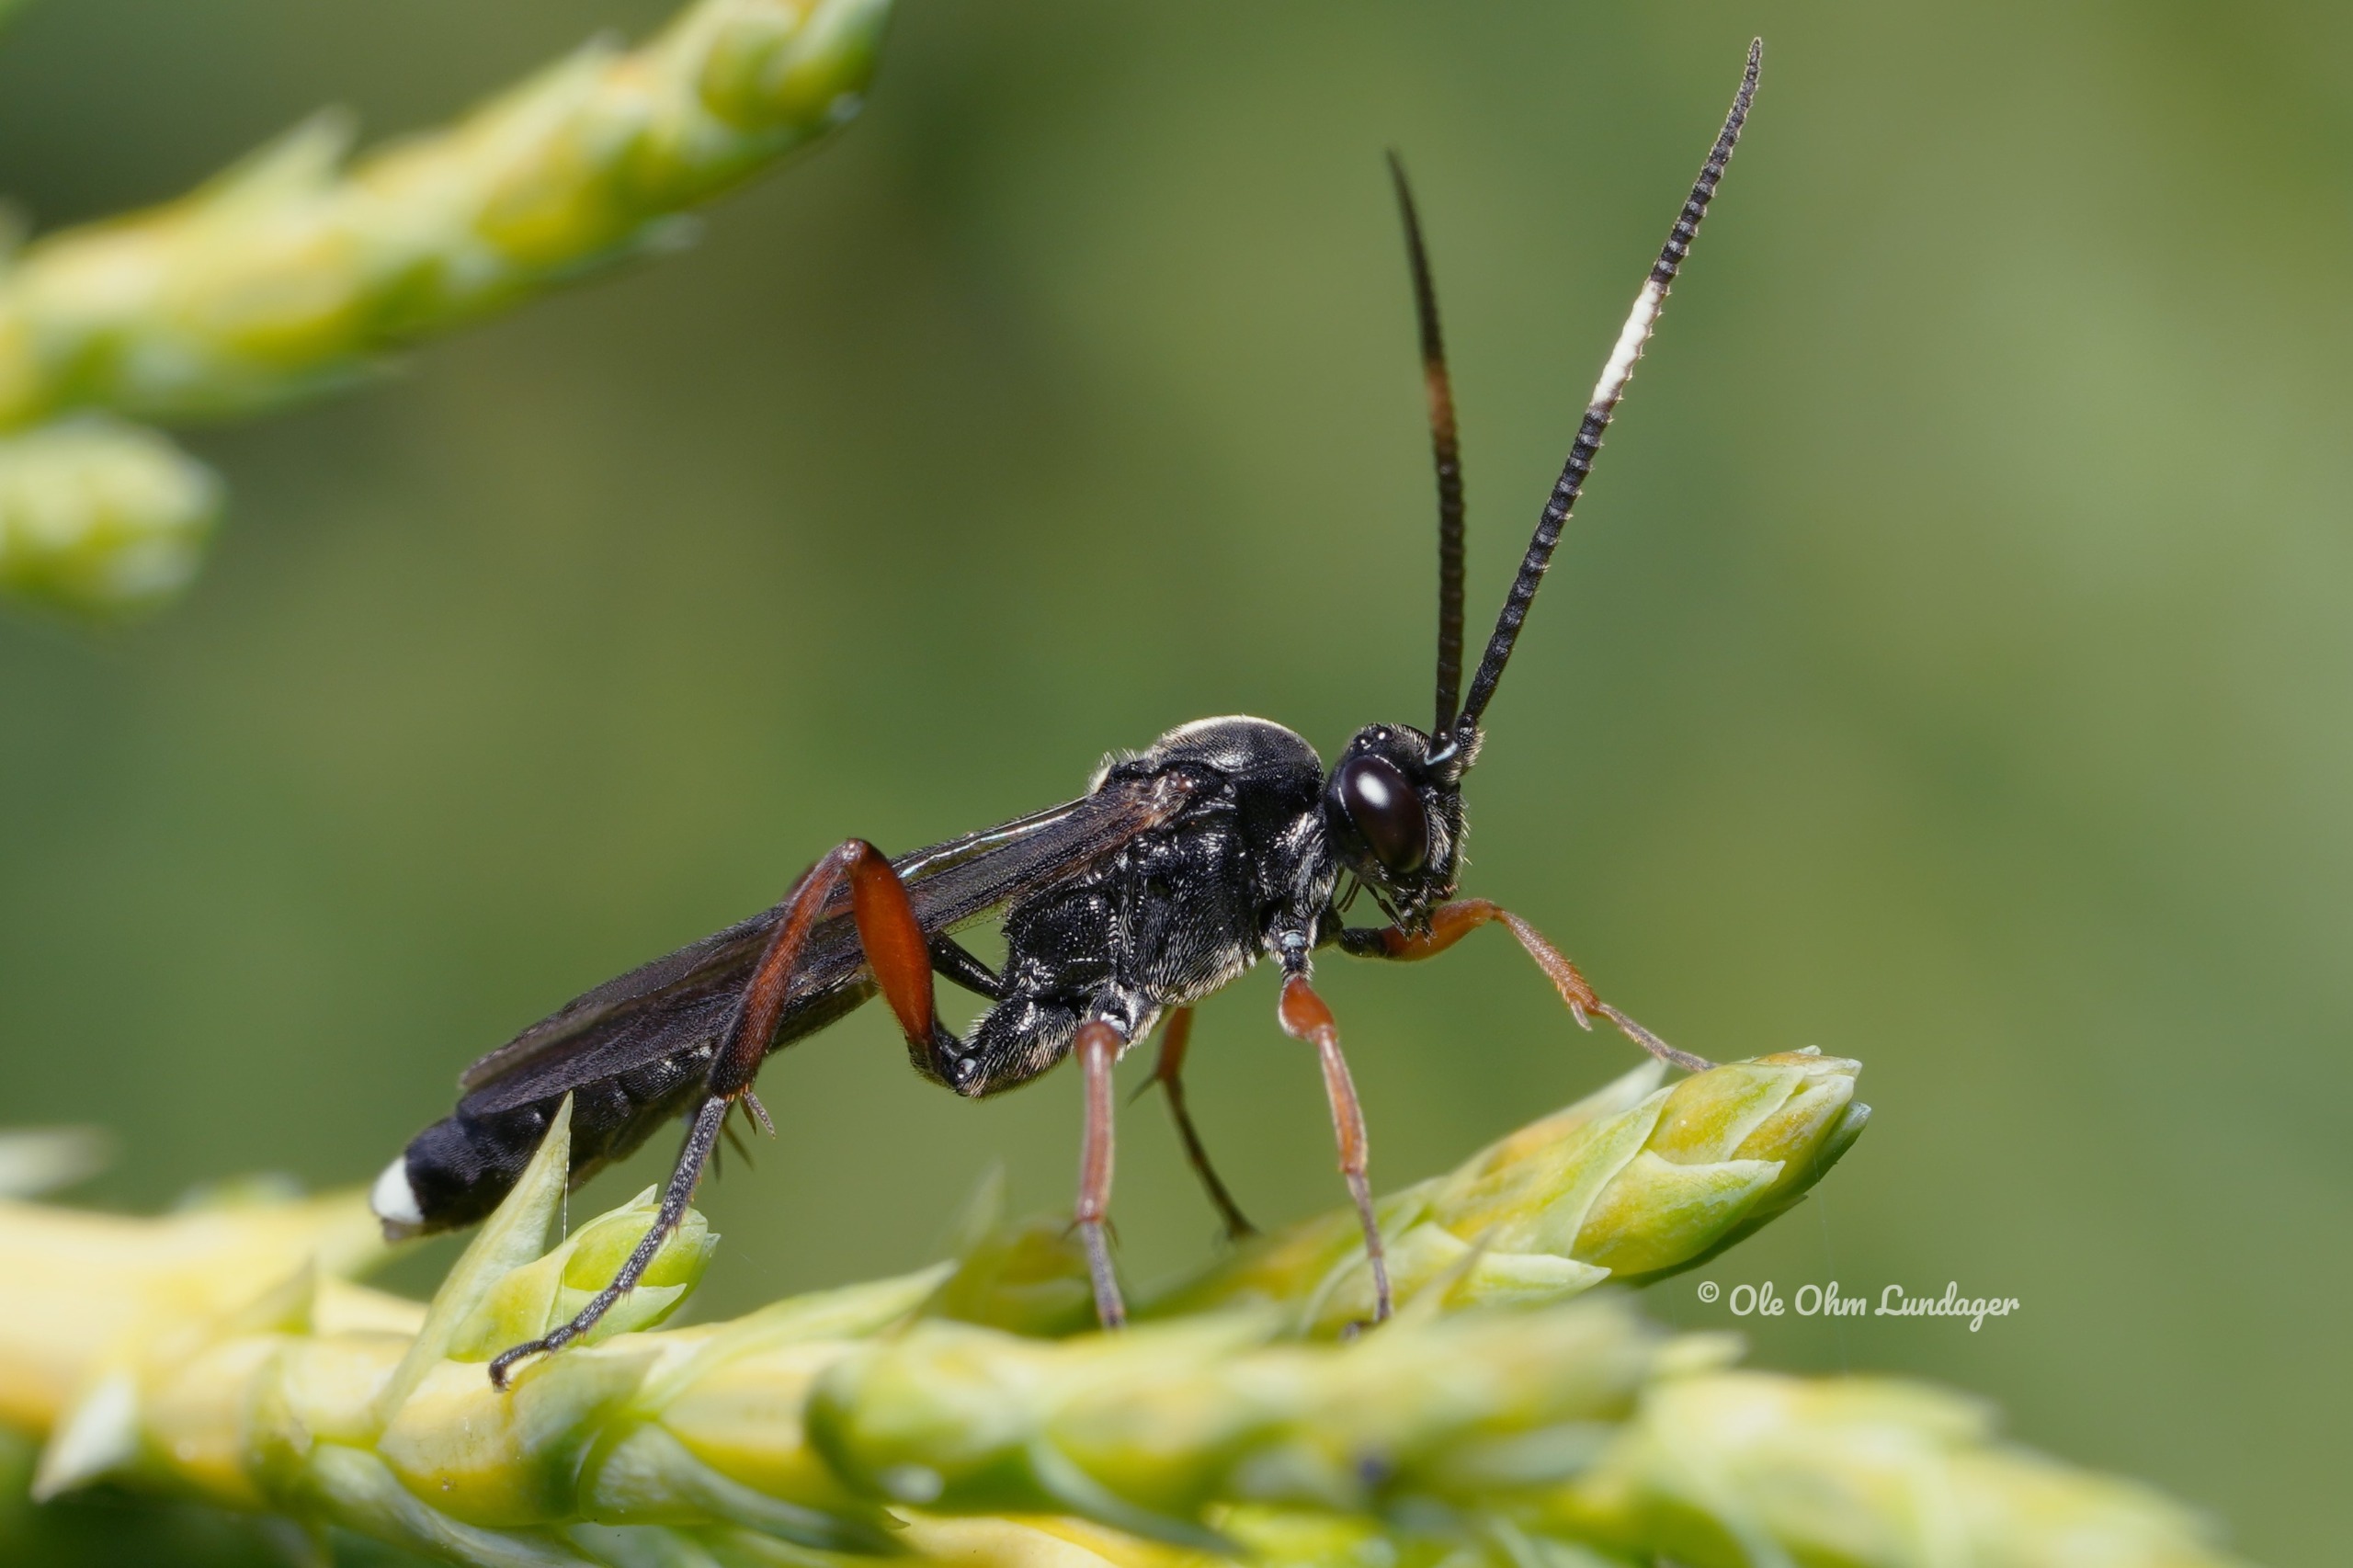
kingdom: Animalia
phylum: Arthropoda
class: Insecta
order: Hymenoptera
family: Ichneumonidae
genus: Vulgichneumon
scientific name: Vulgichneumon saturatorius
